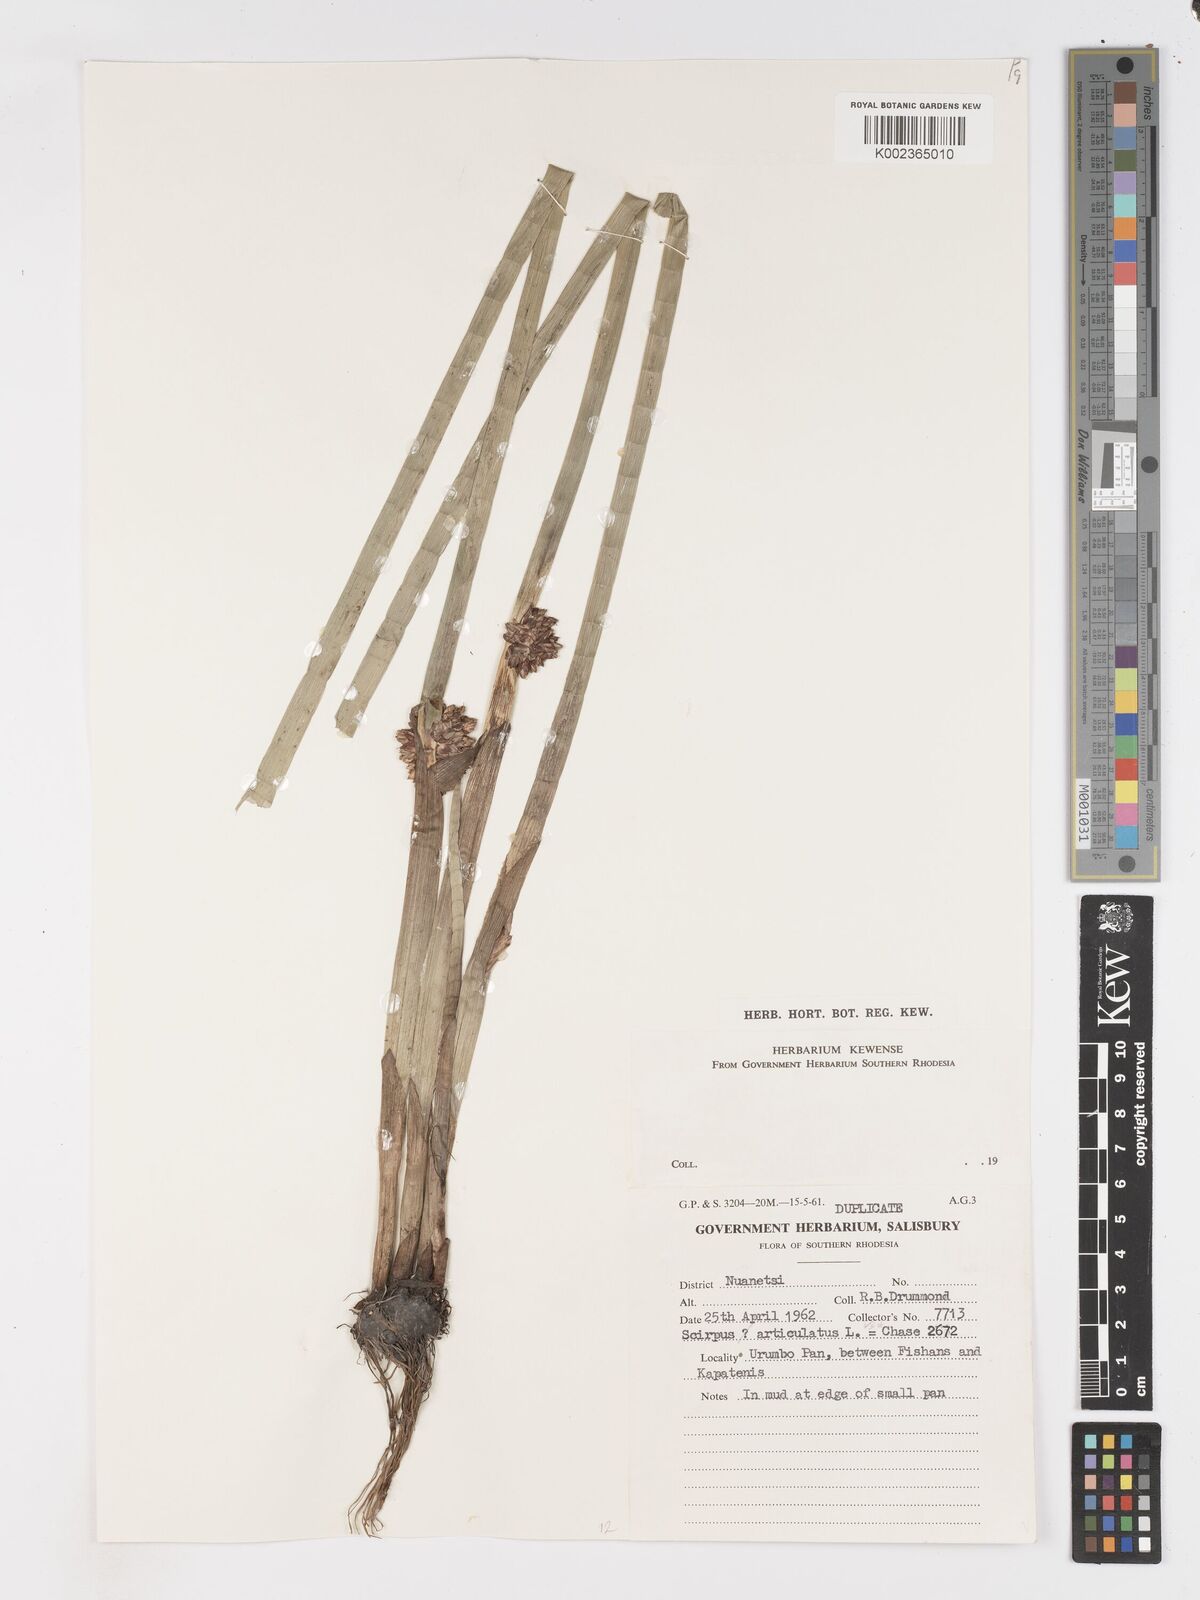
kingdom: Plantae
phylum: Tracheophyta
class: Liliopsida
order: Poales
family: Cyperaceae
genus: Schoenoplectiella
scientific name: Schoenoplectiella articulata
